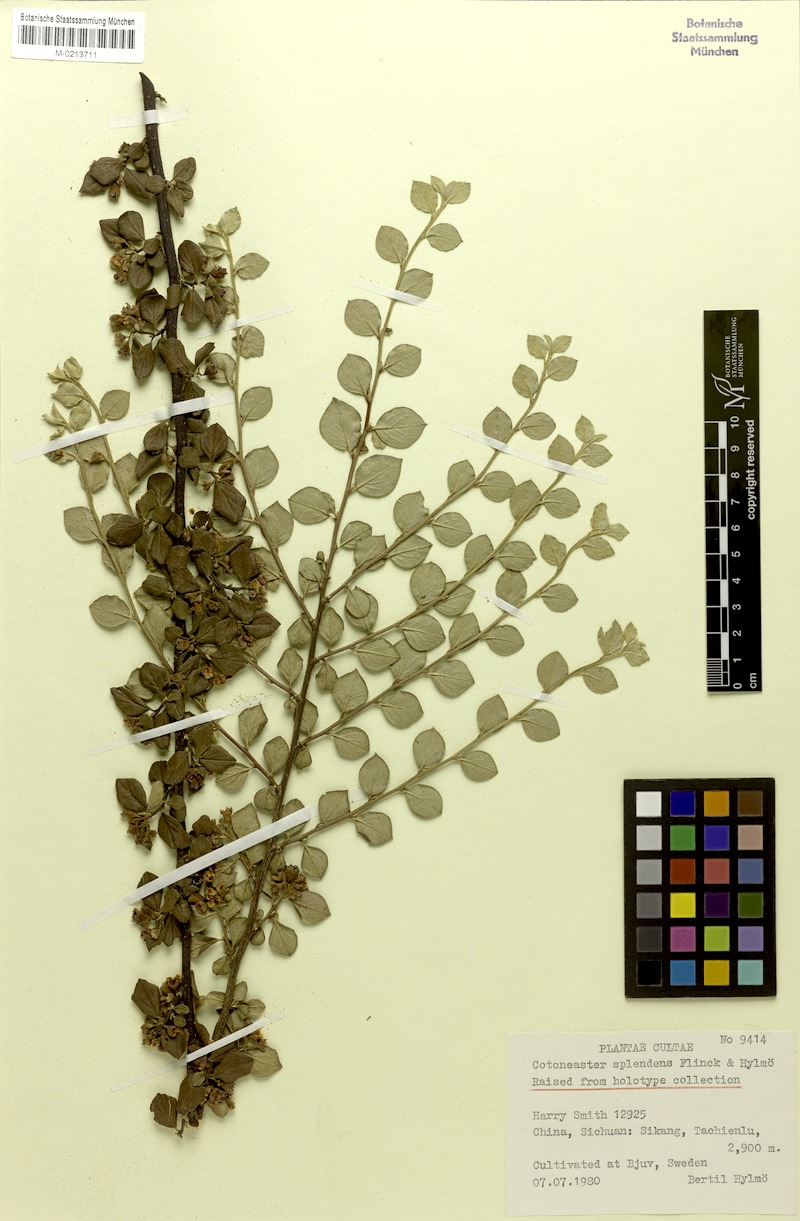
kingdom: Plantae
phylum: Tracheophyta
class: Magnoliopsida
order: Rosales
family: Rosaceae
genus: Cotoneaster
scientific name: Cotoneaster dielsianus
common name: Diels's cotoneaster
